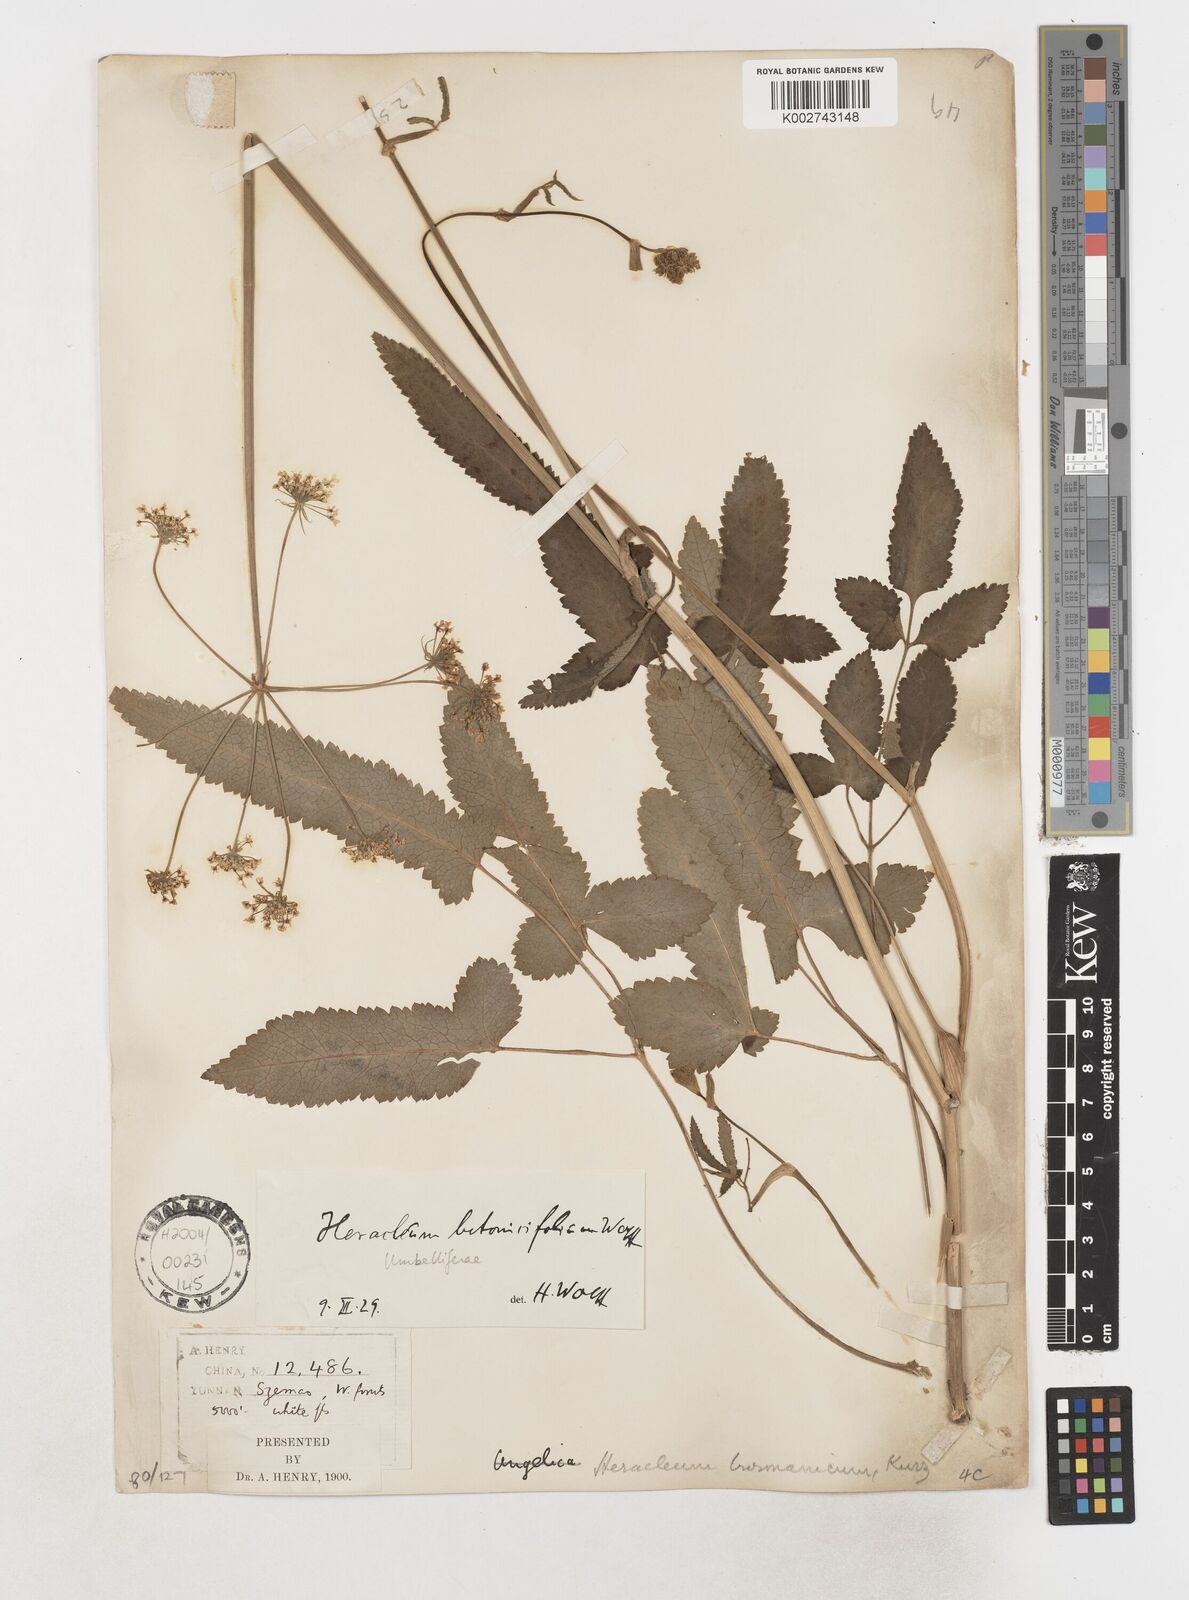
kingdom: Plantae
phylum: Tracheophyta
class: Magnoliopsida
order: Apiales
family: Apiaceae
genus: Heracleum
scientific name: Heracleum dissectum
